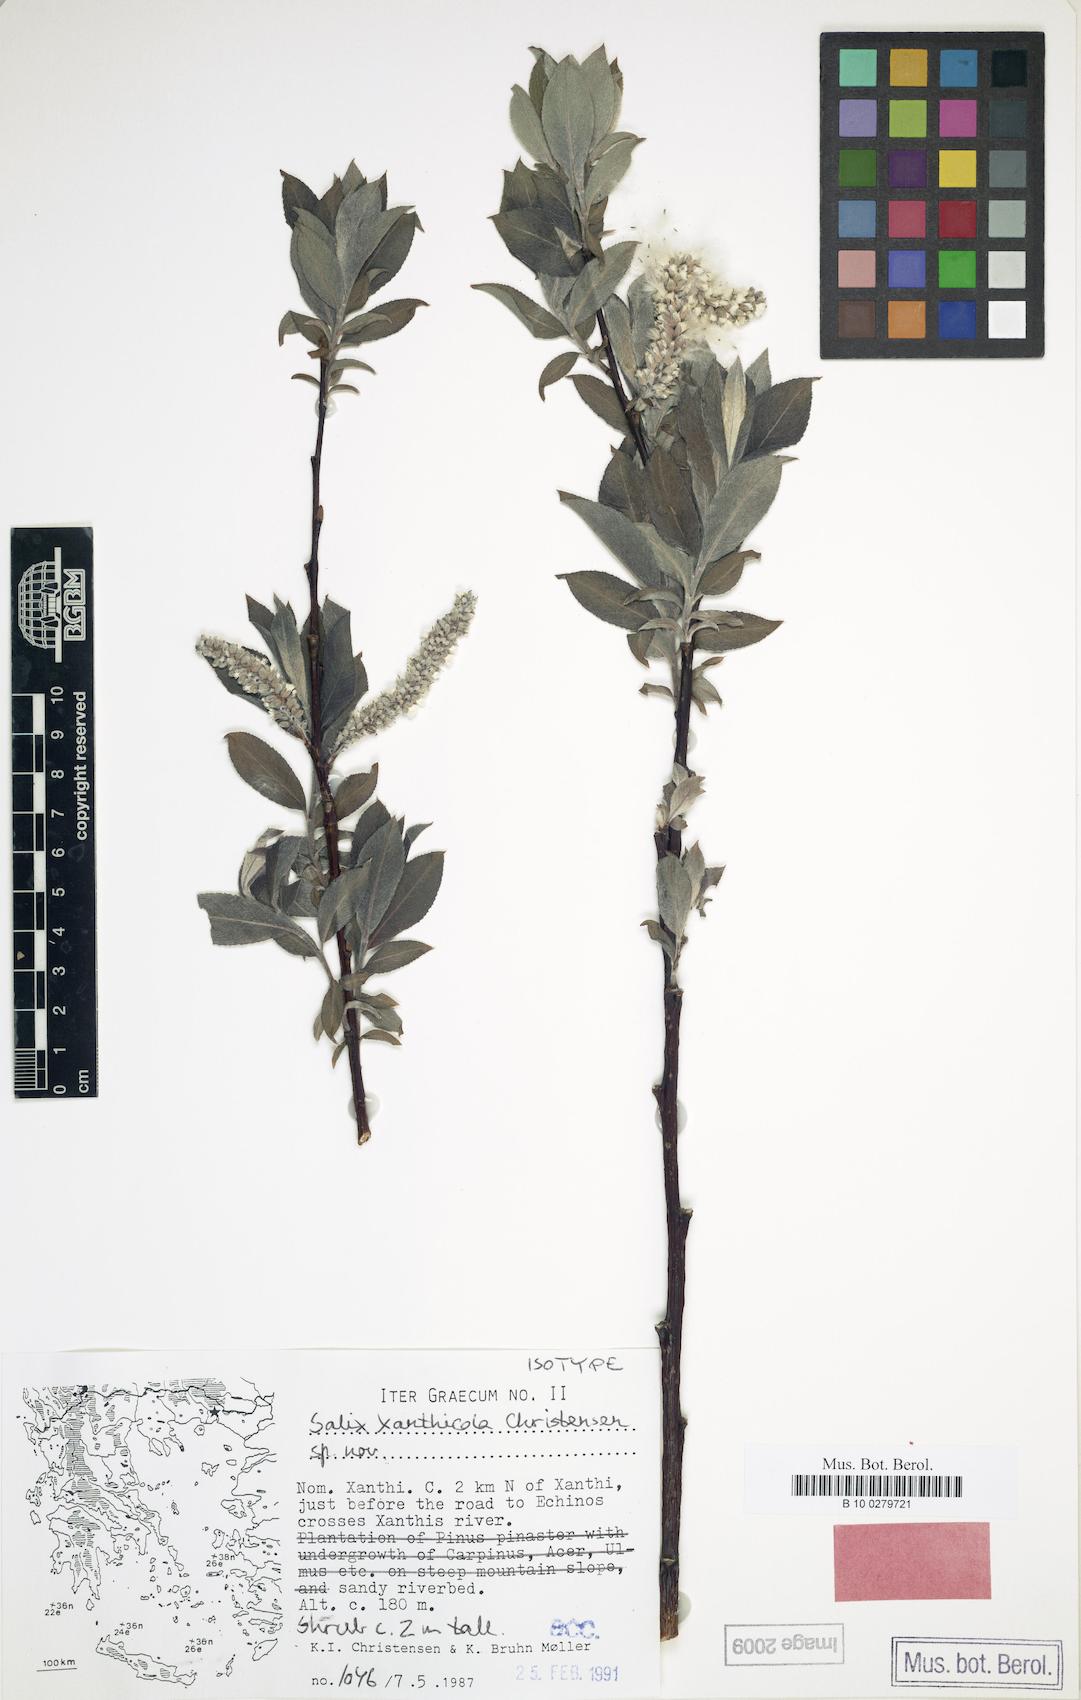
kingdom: Plantae
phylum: Tracheophyta
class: Magnoliopsida
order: Malpighiales
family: Salicaceae
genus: Salix
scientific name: Salix xanthicola
